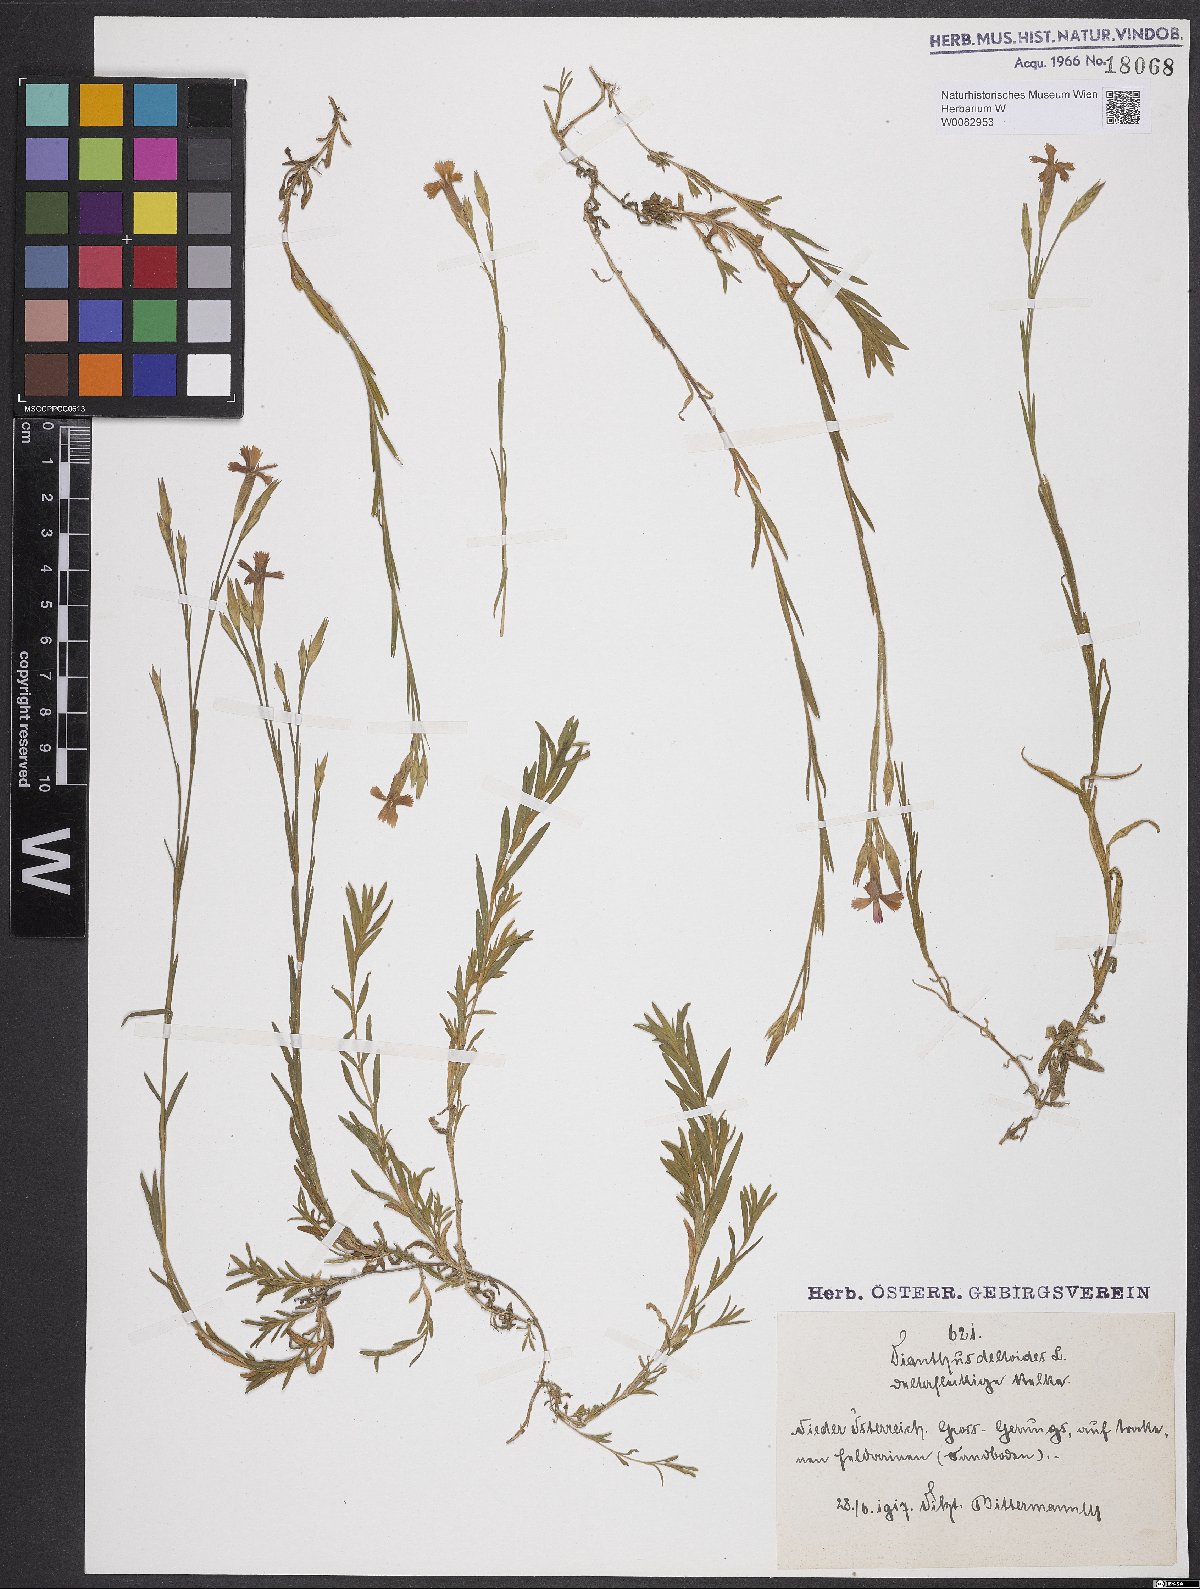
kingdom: Plantae
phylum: Tracheophyta
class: Magnoliopsida
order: Caryophyllales
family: Caryophyllaceae
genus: Dianthus
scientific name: Dianthus deltoides
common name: Maiden pink
